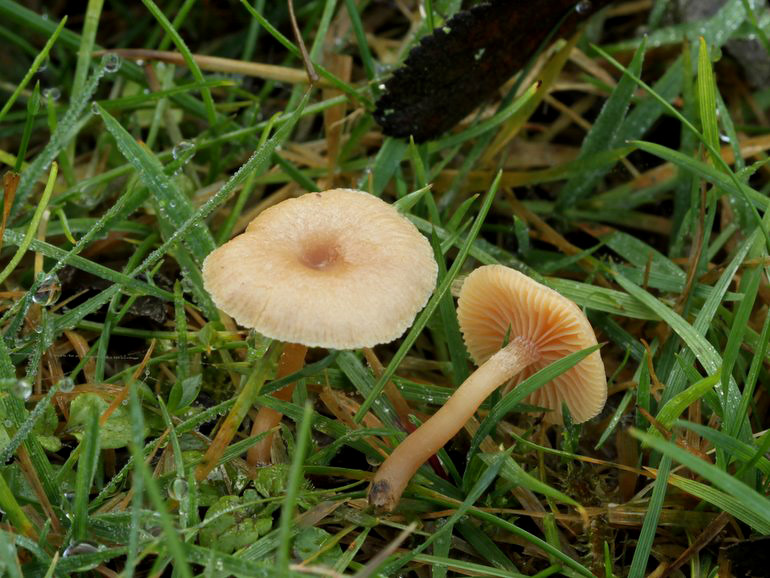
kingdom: Fungi
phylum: Basidiomycota
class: Agaricomycetes
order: Agaricales
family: Tubariaceae
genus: Tubaria
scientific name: Tubaria furfuracea
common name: kliddet fnughat
